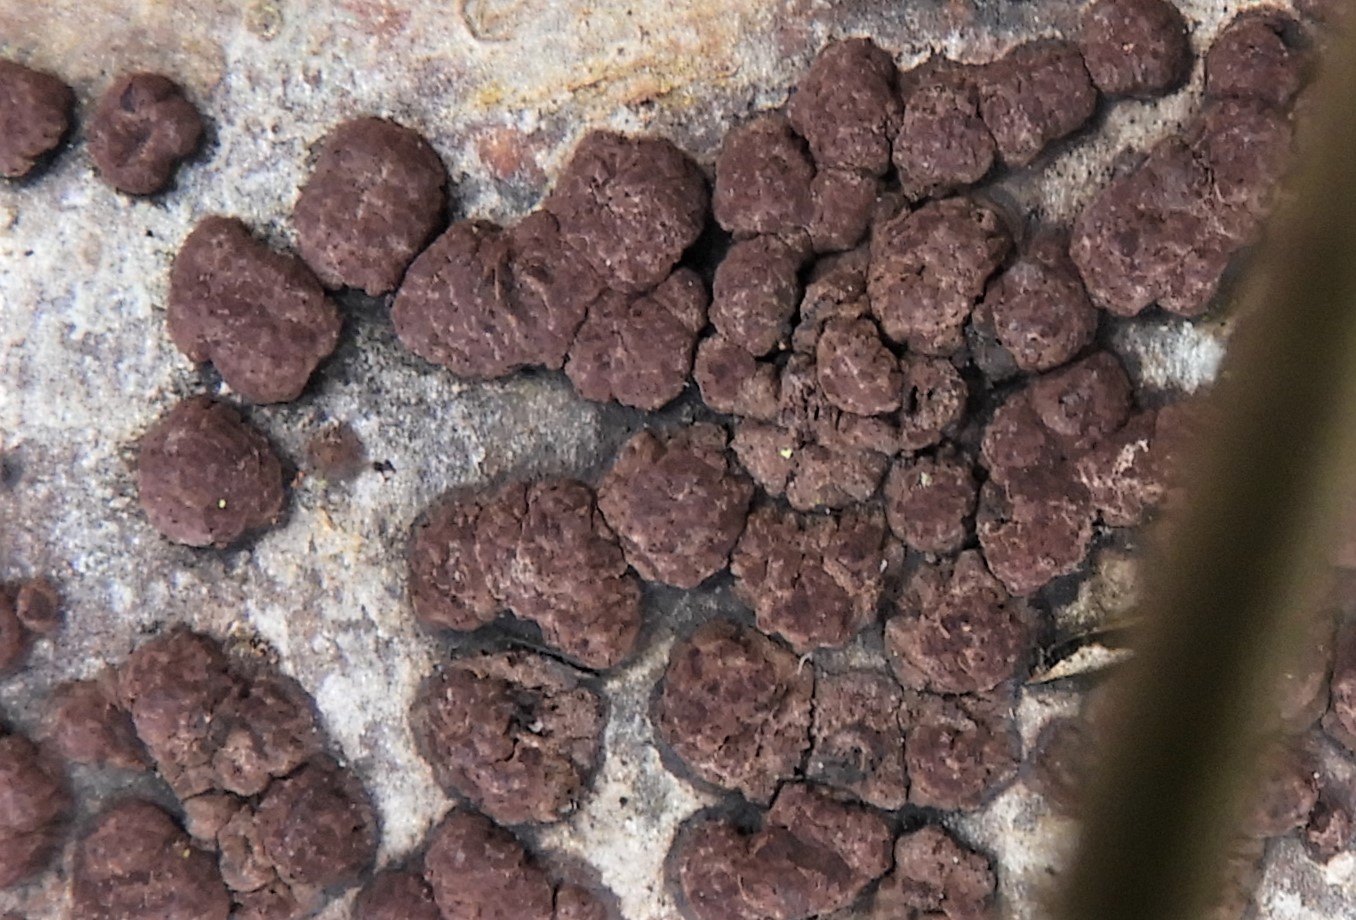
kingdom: Fungi
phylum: Ascomycota
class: Sordariomycetes
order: Xylariales
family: Hypoxylaceae
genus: Hypoxylon
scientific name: Hypoxylon fuscum
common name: kegleformet kulbær
